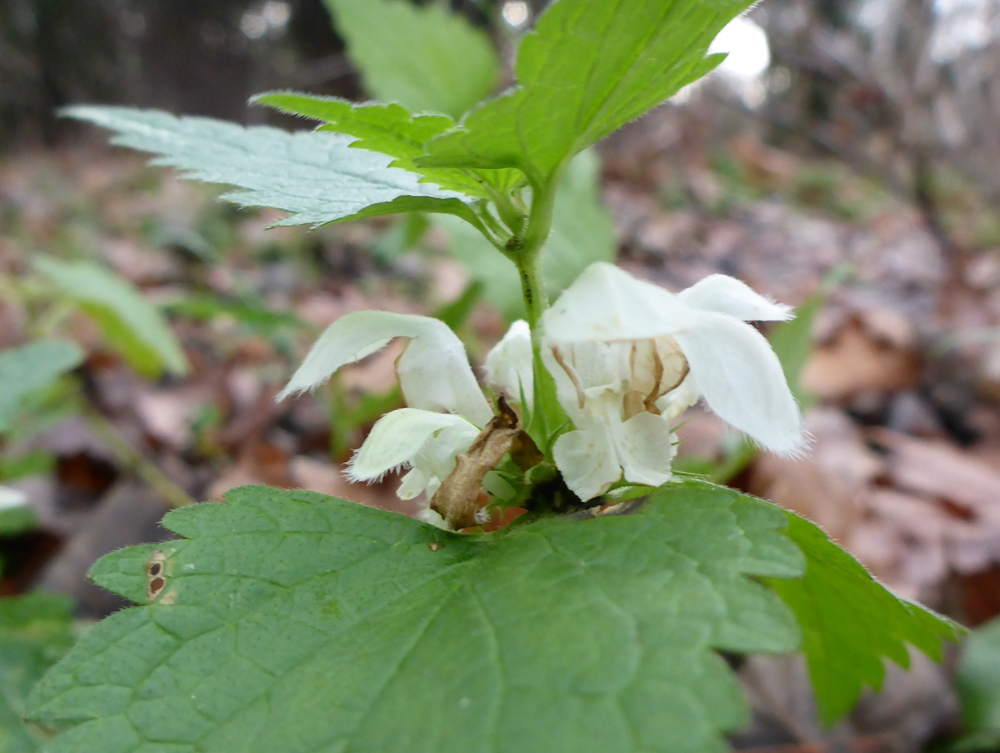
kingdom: Plantae
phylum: Tracheophyta
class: Magnoliopsida
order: Lamiales
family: Lamiaceae
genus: Lamium
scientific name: Lamium album
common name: White dead-nettle
